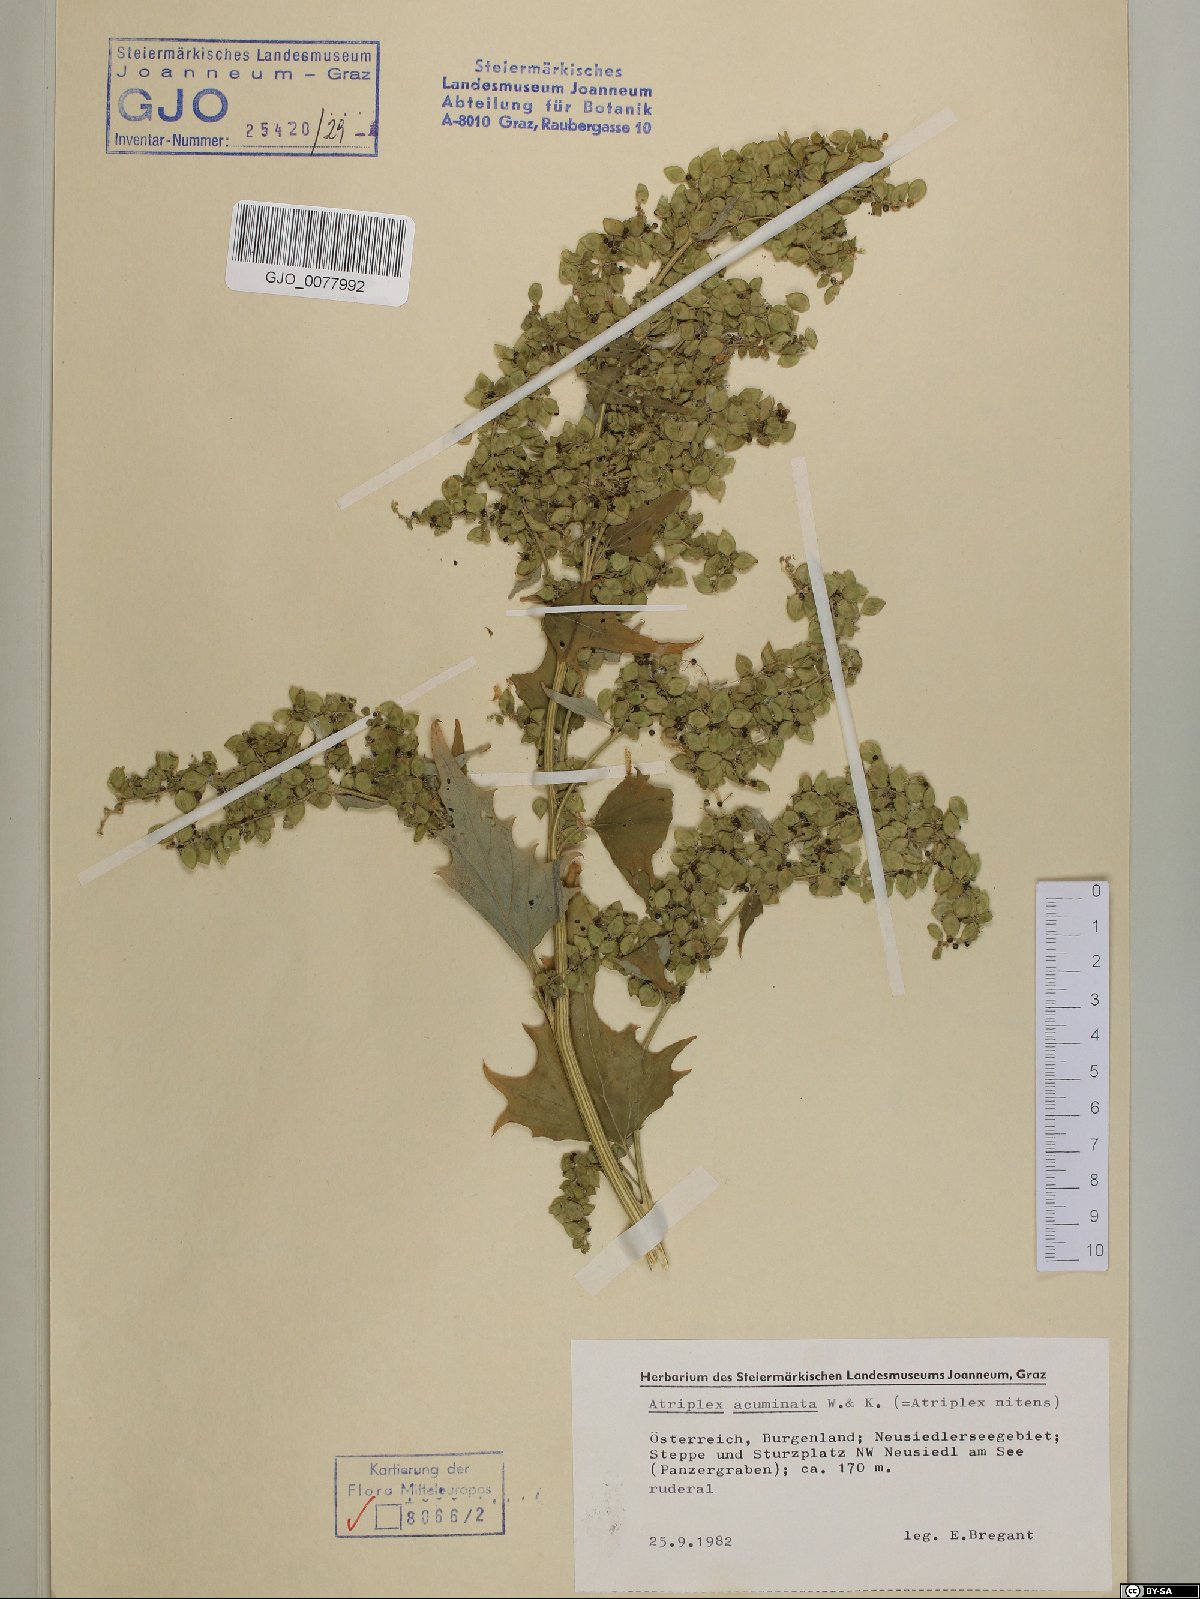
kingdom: Plantae
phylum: Tracheophyta
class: Magnoliopsida
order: Caryophyllales
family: Amaranthaceae
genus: Atriplex
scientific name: Atriplex sagittata
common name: Purple orache
